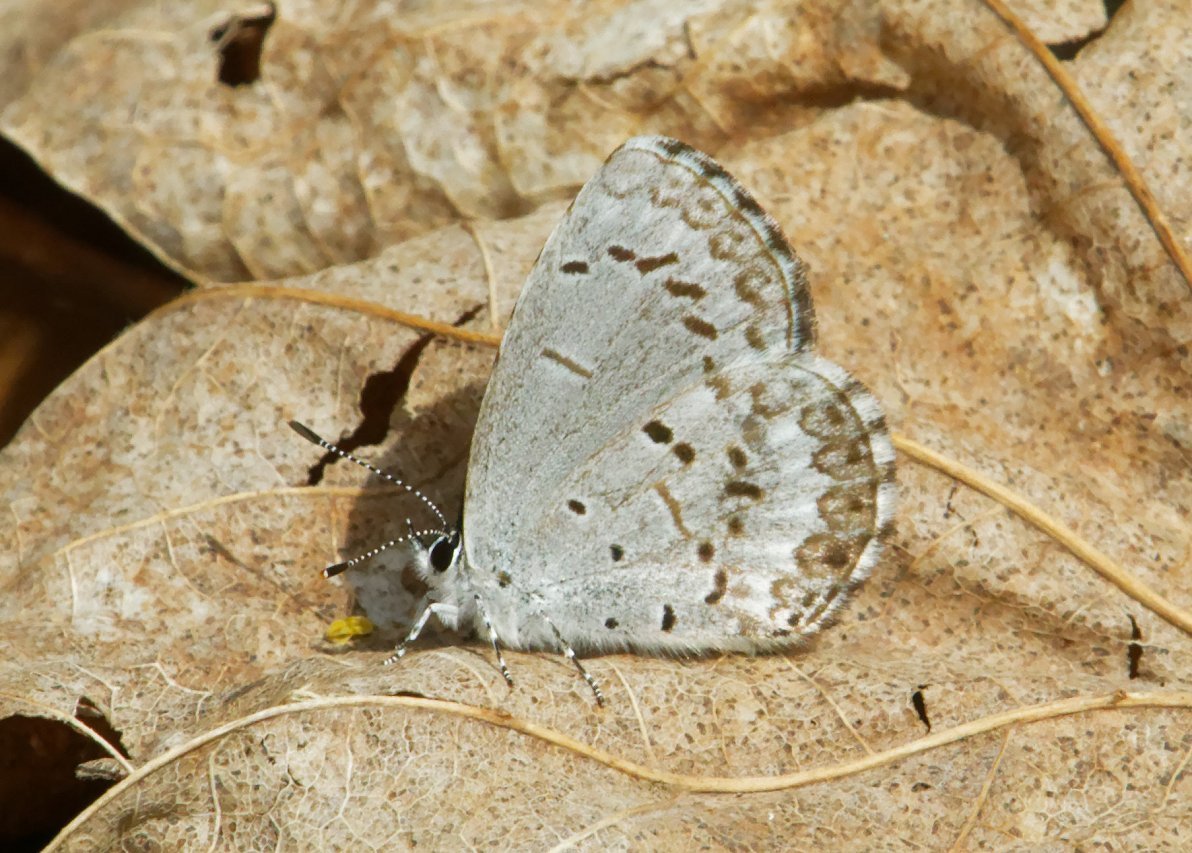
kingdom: Animalia
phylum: Arthropoda
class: Insecta
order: Lepidoptera
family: Lycaenidae
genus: Celastrina
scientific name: Celastrina lucia
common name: Northern Spring Azure
